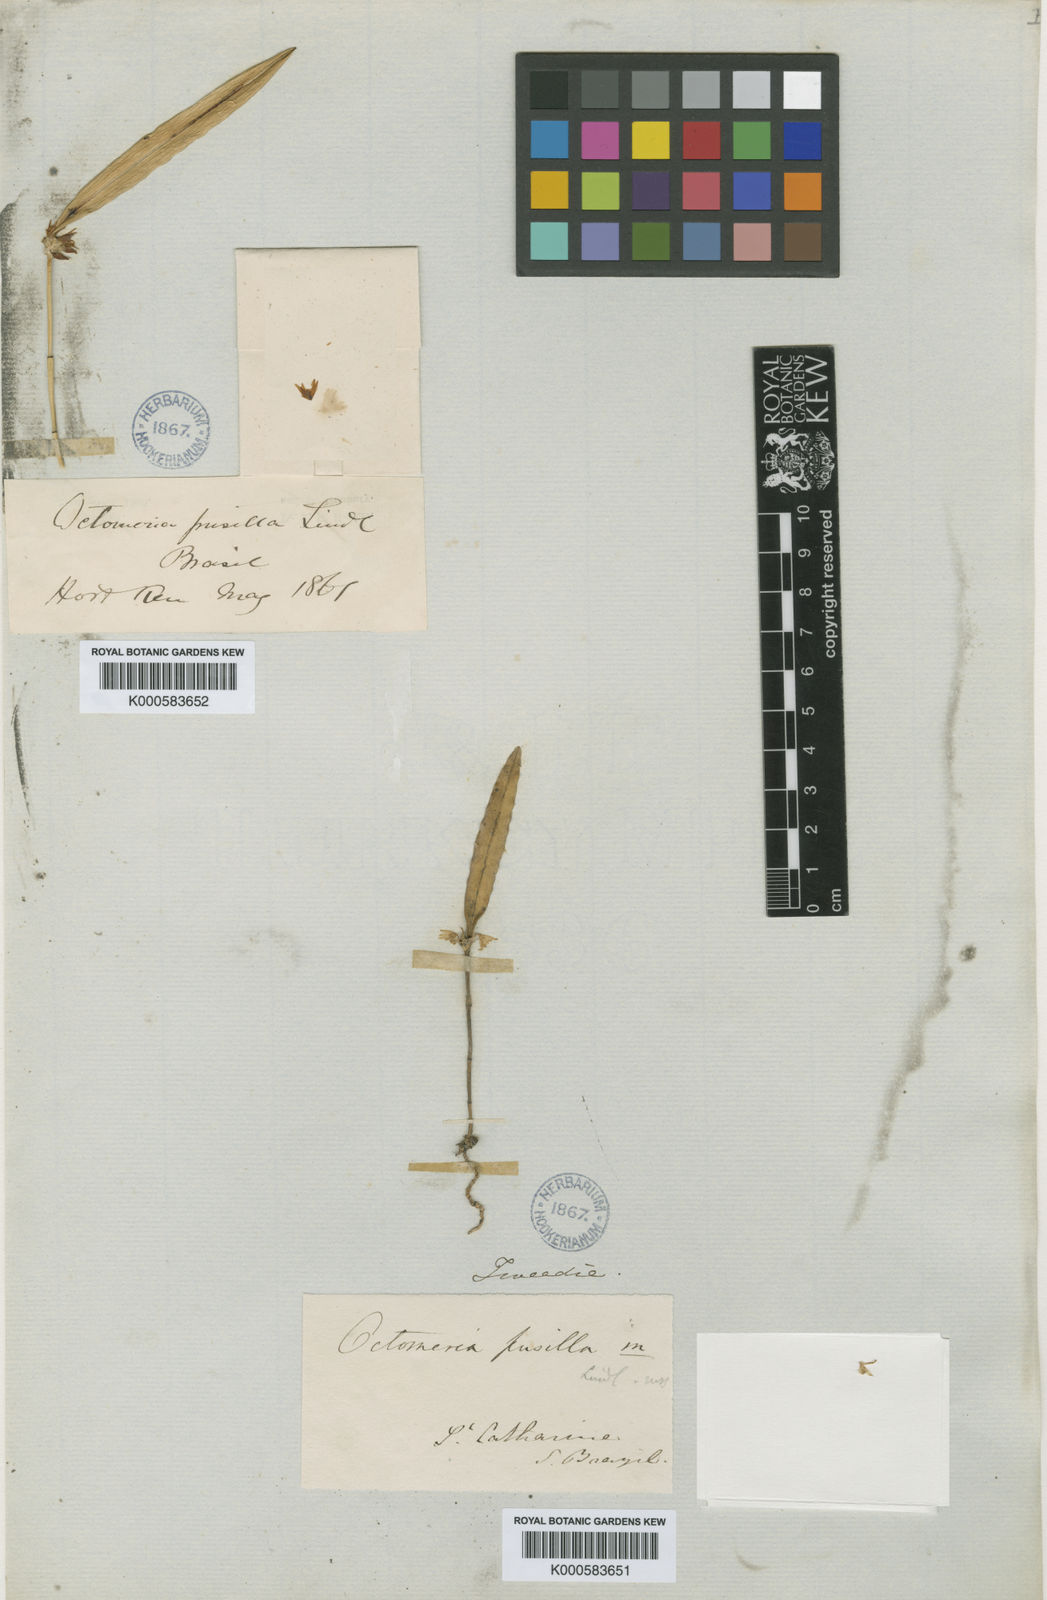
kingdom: Plantae
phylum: Tracheophyta
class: Liliopsida
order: Asparagales
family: Orchidaceae
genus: Octomeria
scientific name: Octomeria pusilla
